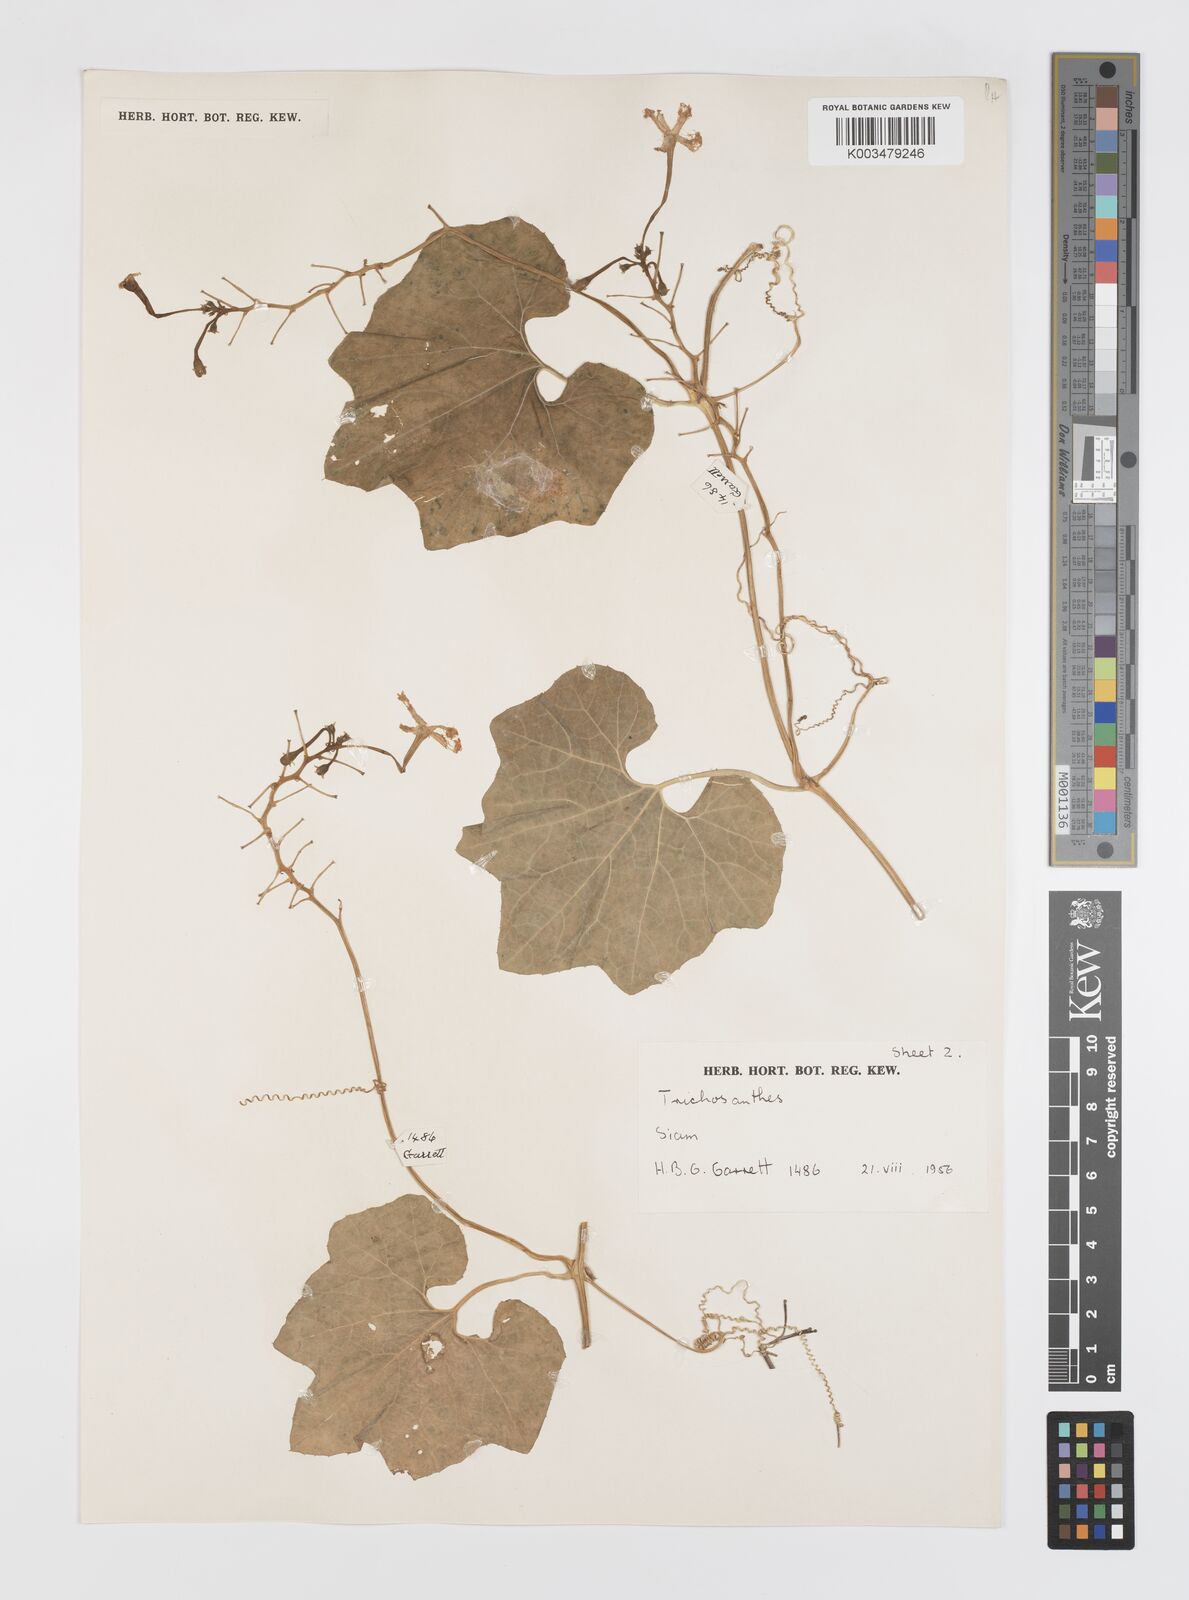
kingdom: Plantae
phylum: Tracheophyta
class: Magnoliopsida
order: Cucurbitales
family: Cucurbitaceae
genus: Trichosanthes
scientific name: Trichosanthes cucumerina
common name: Snakegourd
